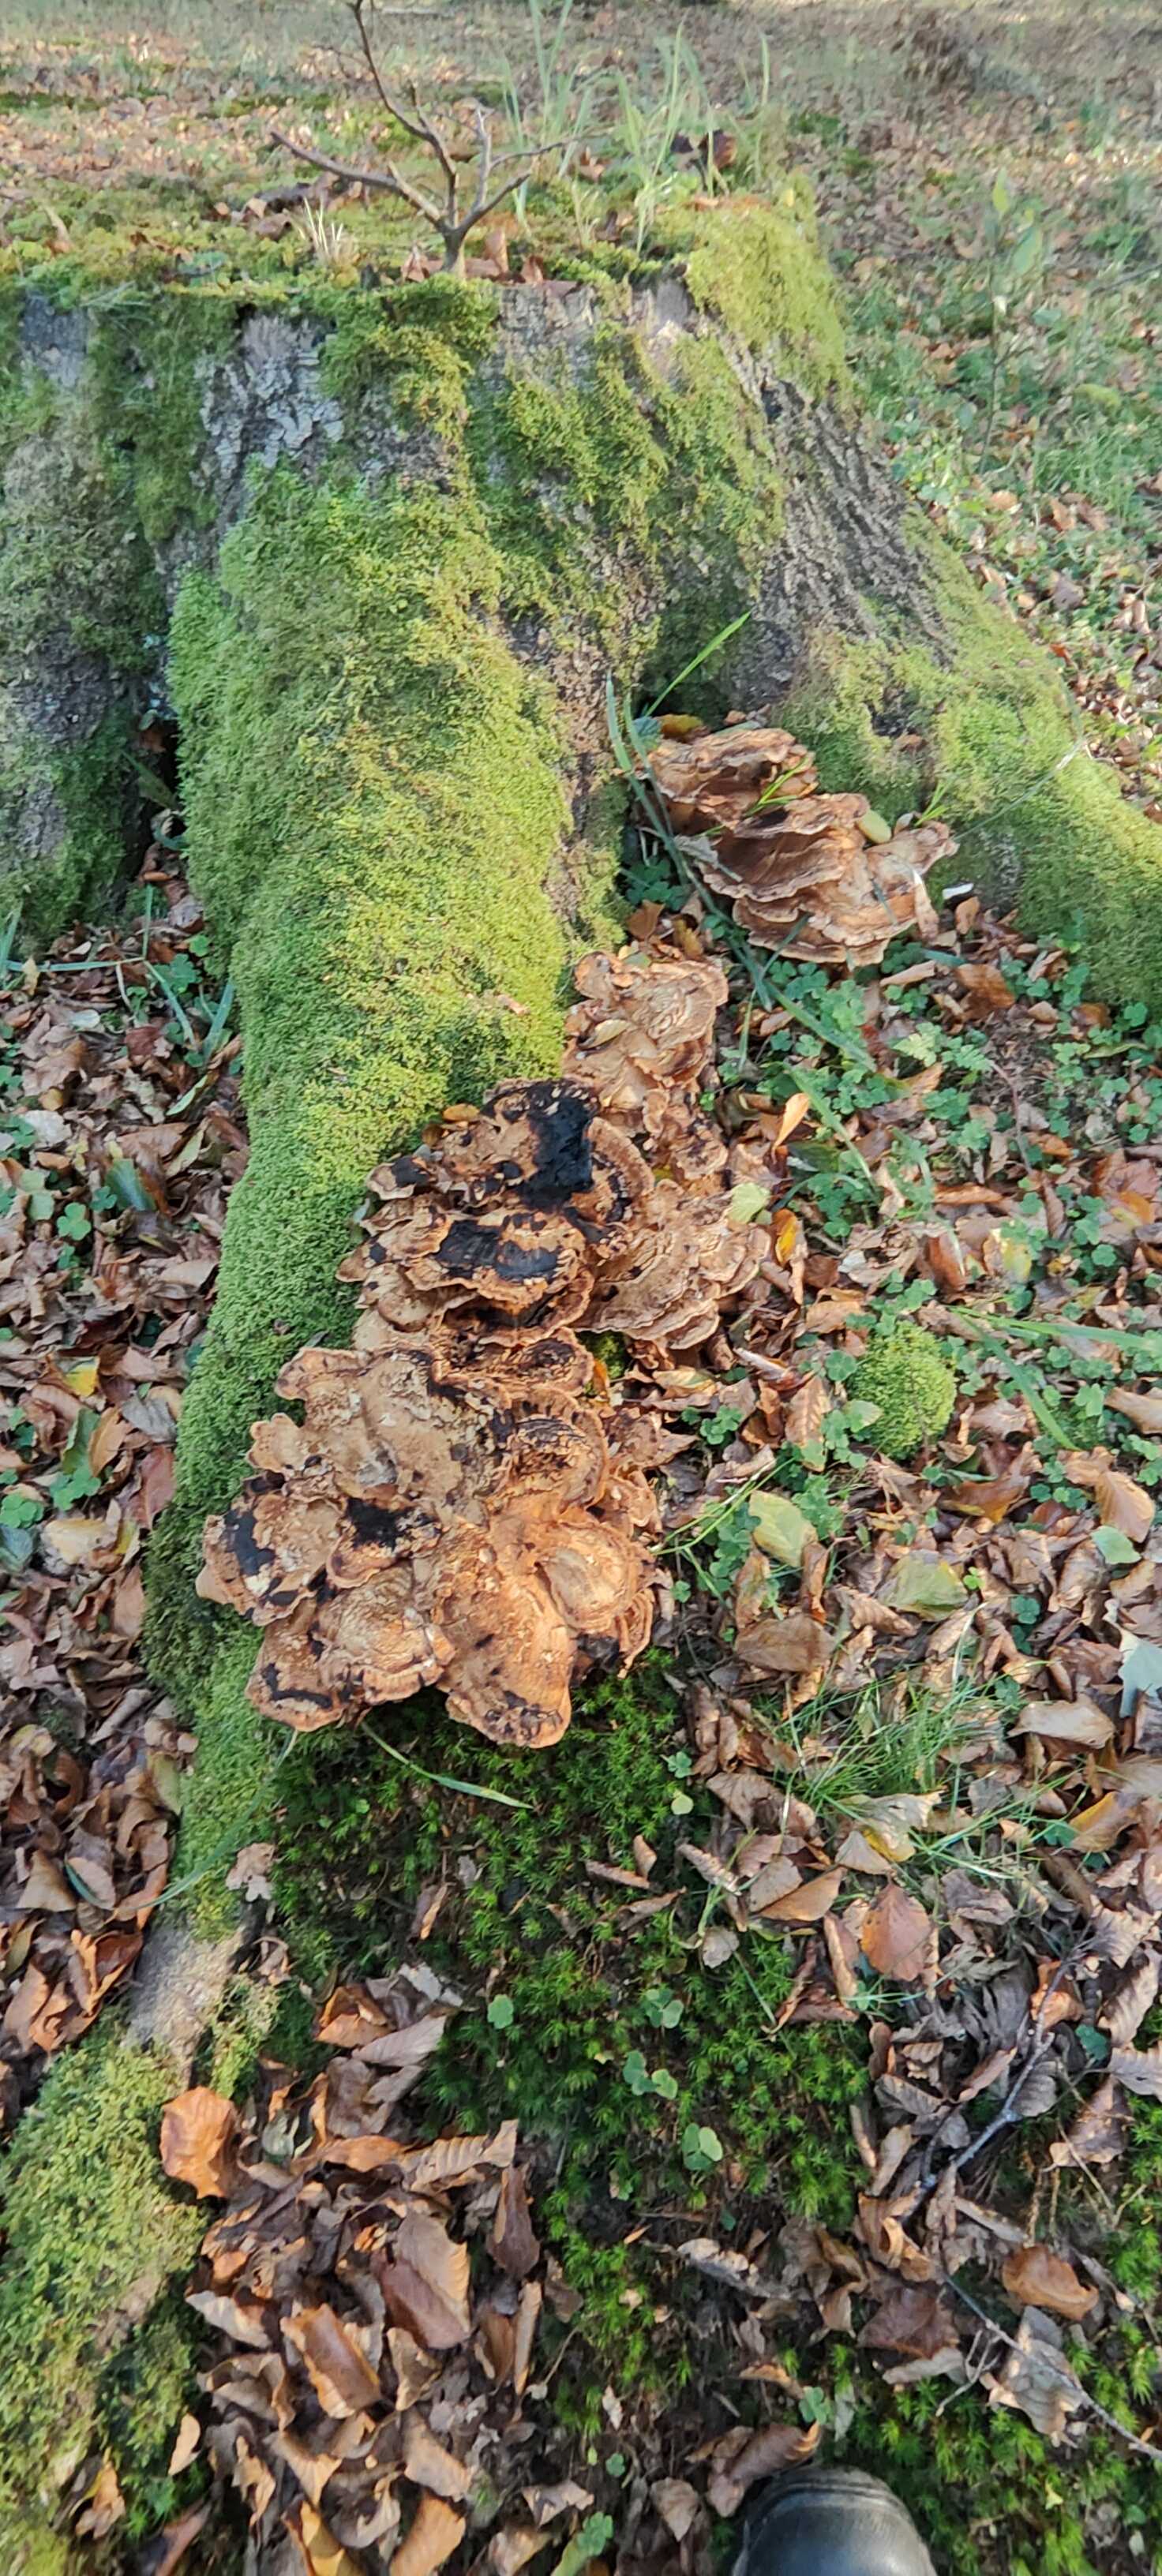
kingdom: Fungi
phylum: Basidiomycota
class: Agaricomycetes
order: Polyporales
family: Meripilaceae
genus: Meripilus
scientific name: Meripilus giganteus
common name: kæmpeporesvamp
